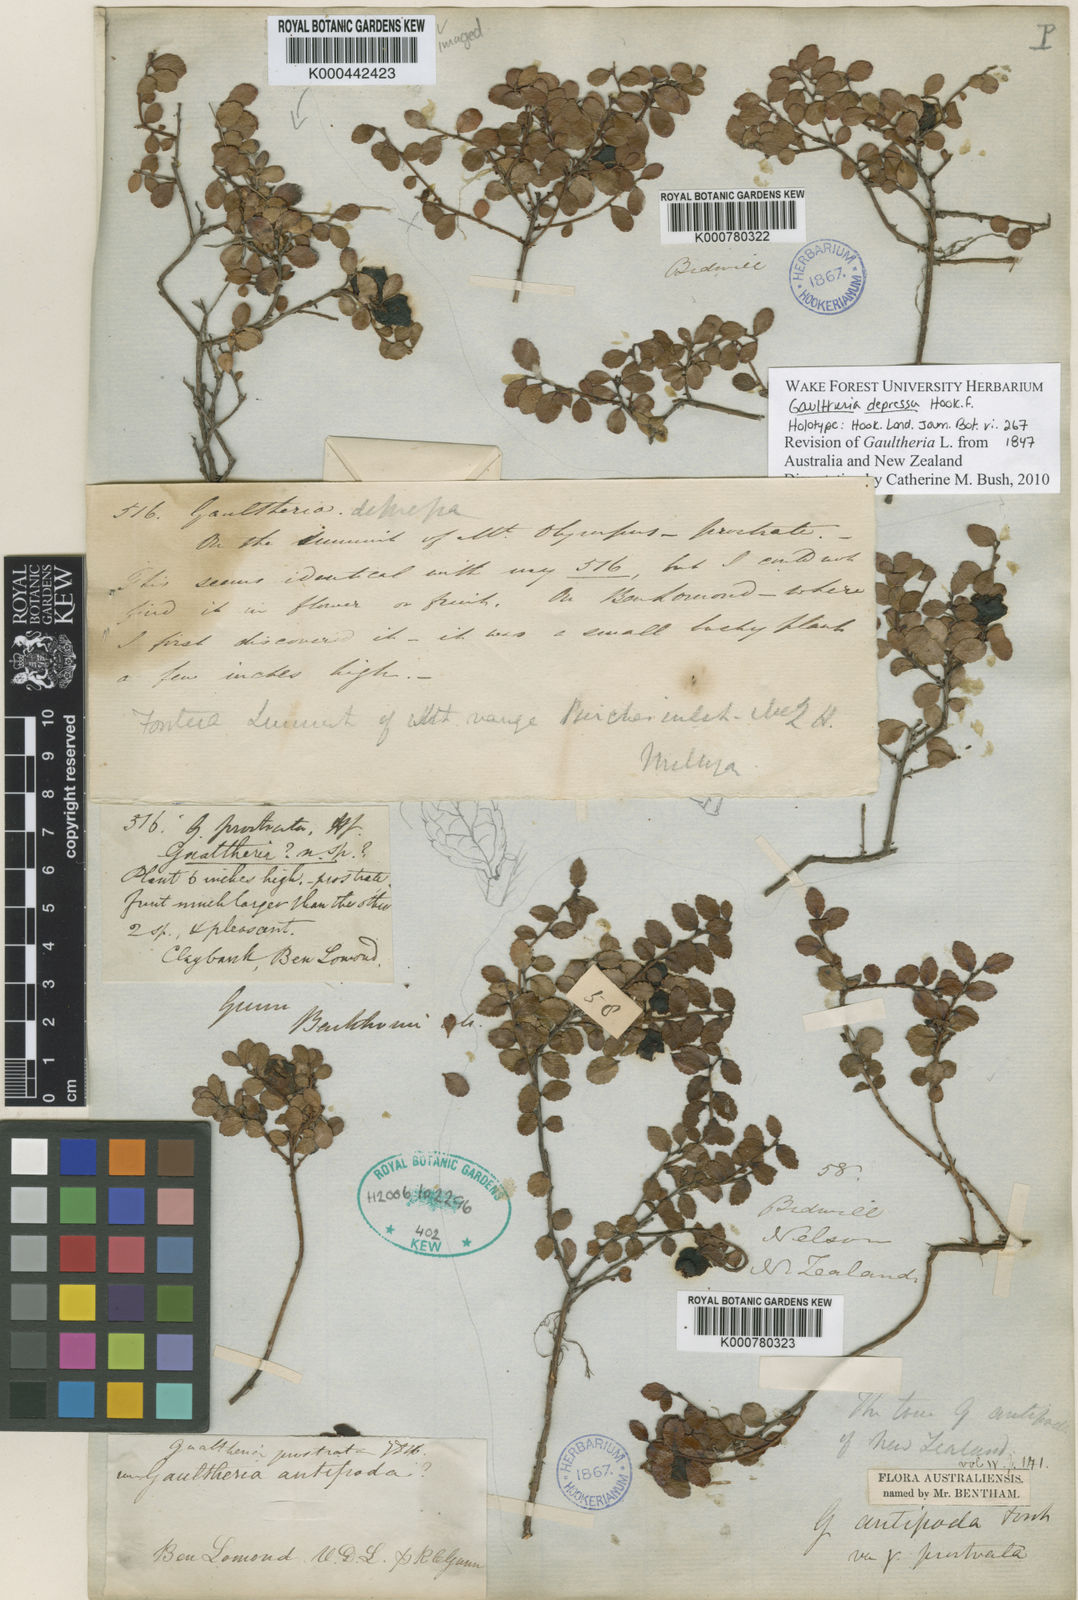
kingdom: Plantae
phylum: Tracheophyta
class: Magnoliopsida
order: Ericales
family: Ericaceae
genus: Gaultheria
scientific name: Gaultheria depressa
